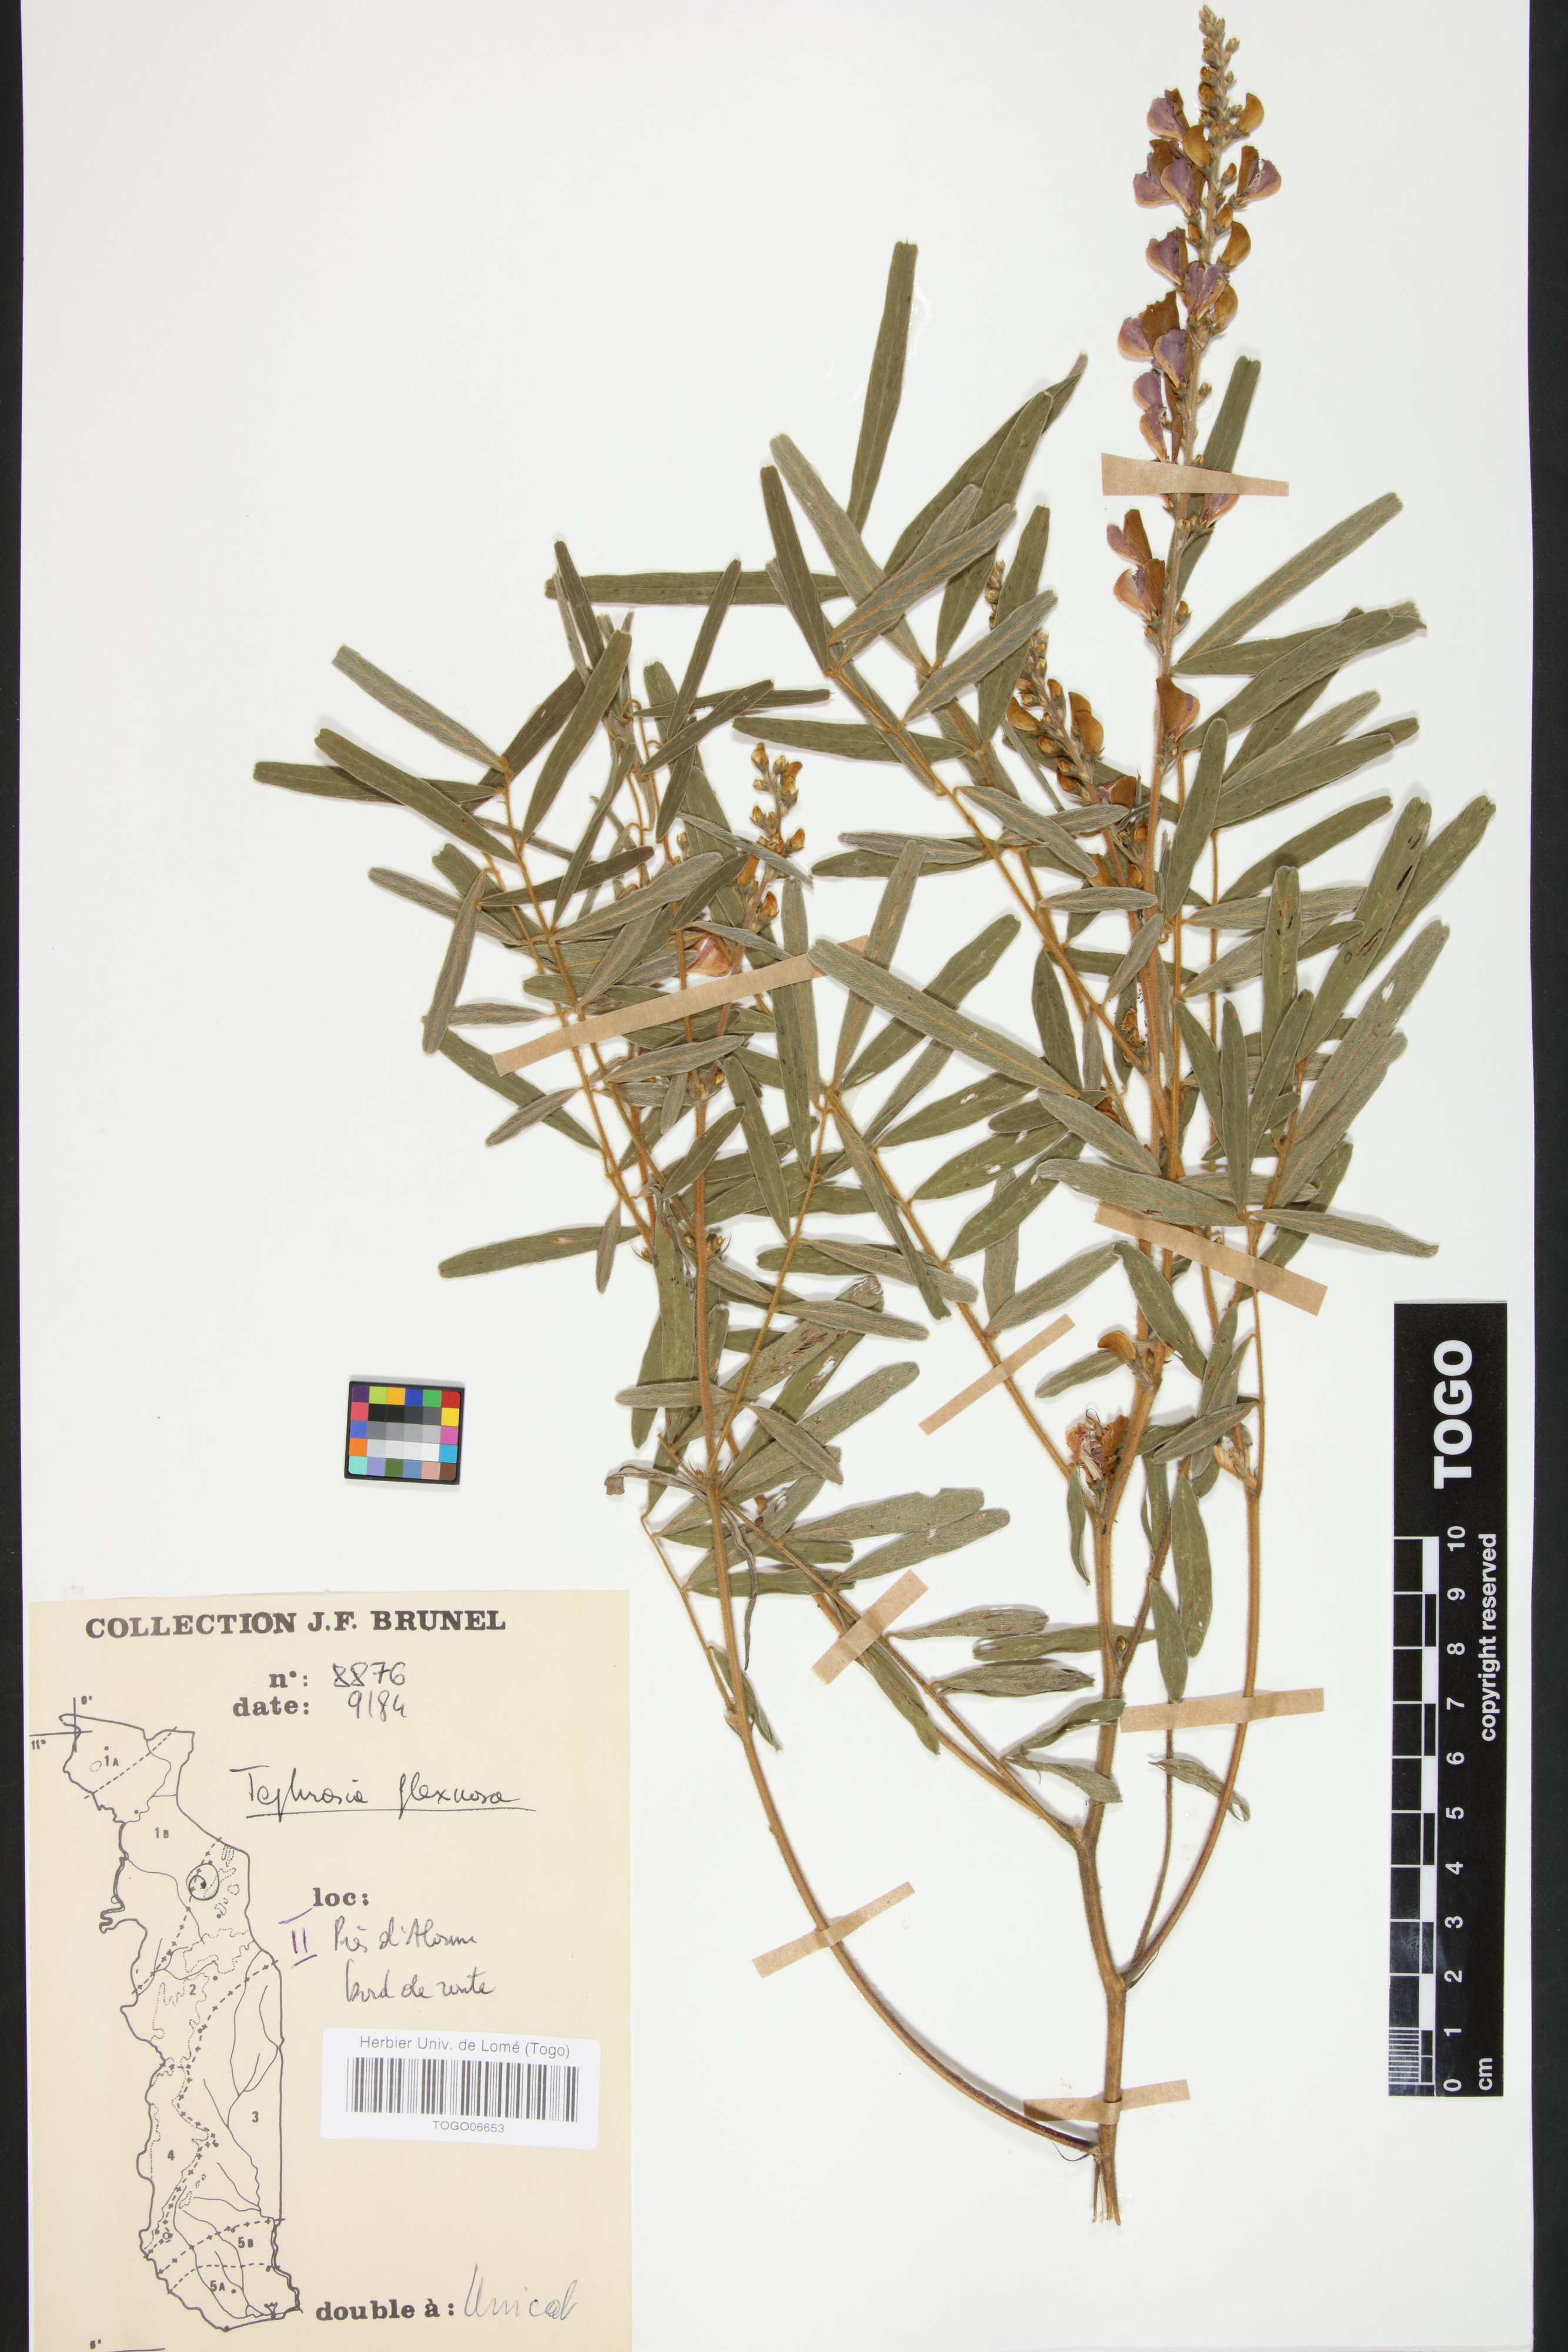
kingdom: Plantae
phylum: Tracheophyta
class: Magnoliopsida
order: Fabales
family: Fabaceae
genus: Tephrosia
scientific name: Tephrosia flexuosa
